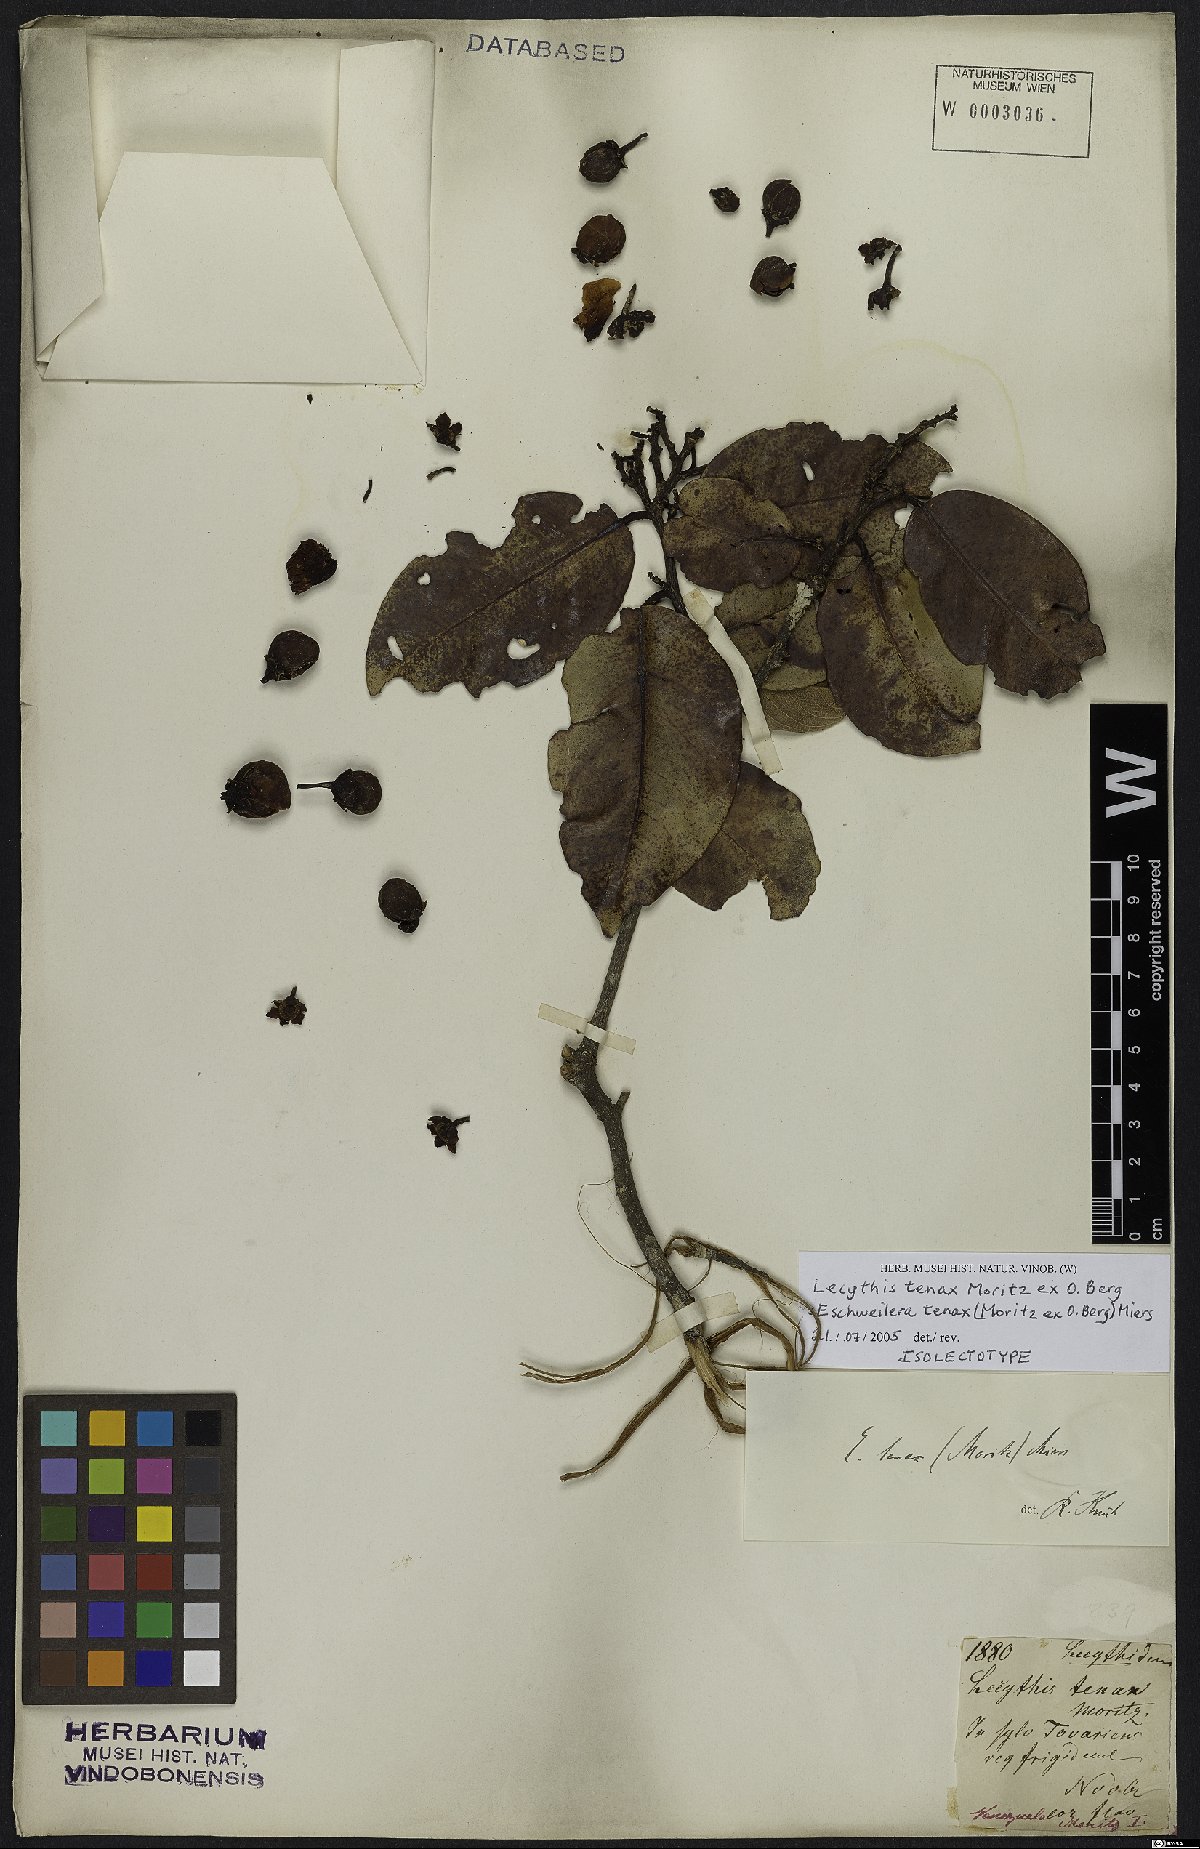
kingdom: Plantae
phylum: Tracheophyta
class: Magnoliopsida
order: Ericales
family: Lecythidaceae
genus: Eschweilera
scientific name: Eschweilera tenax
